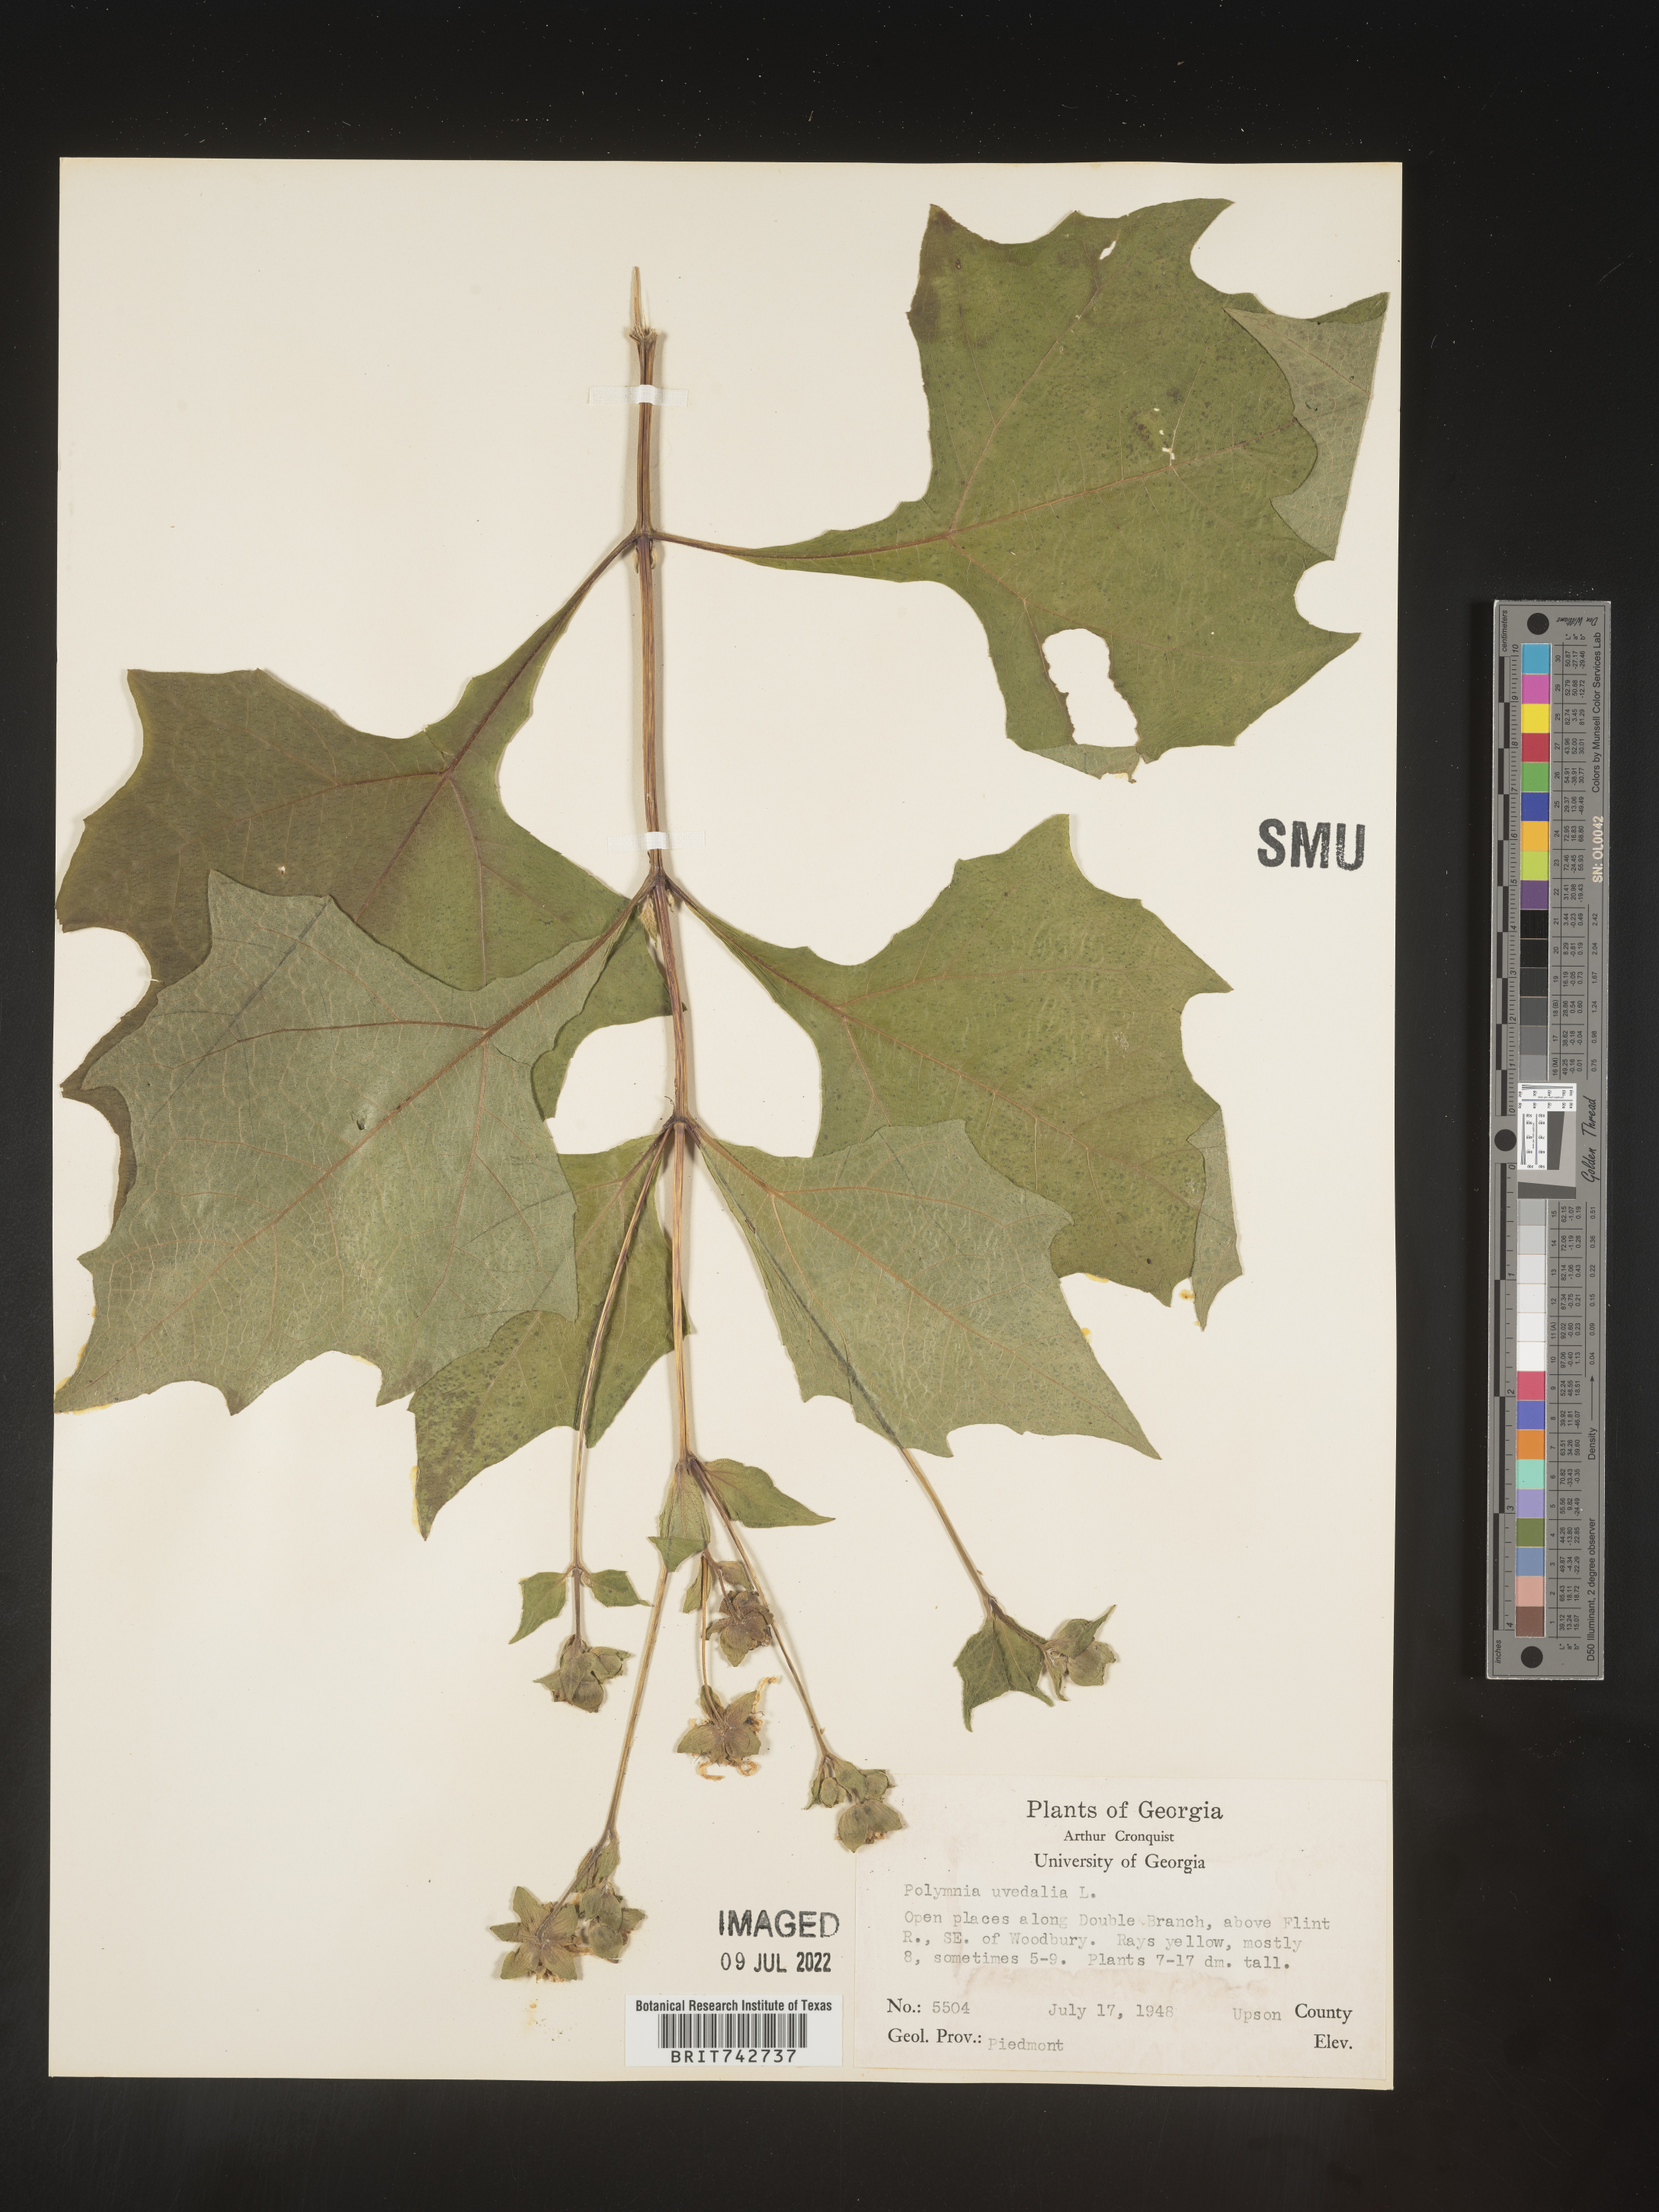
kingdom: Plantae
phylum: Tracheophyta
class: Magnoliopsida
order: Asterales
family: Asteraceae
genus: Smallanthus
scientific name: Smallanthus uvedalia
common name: Bear's-foot
